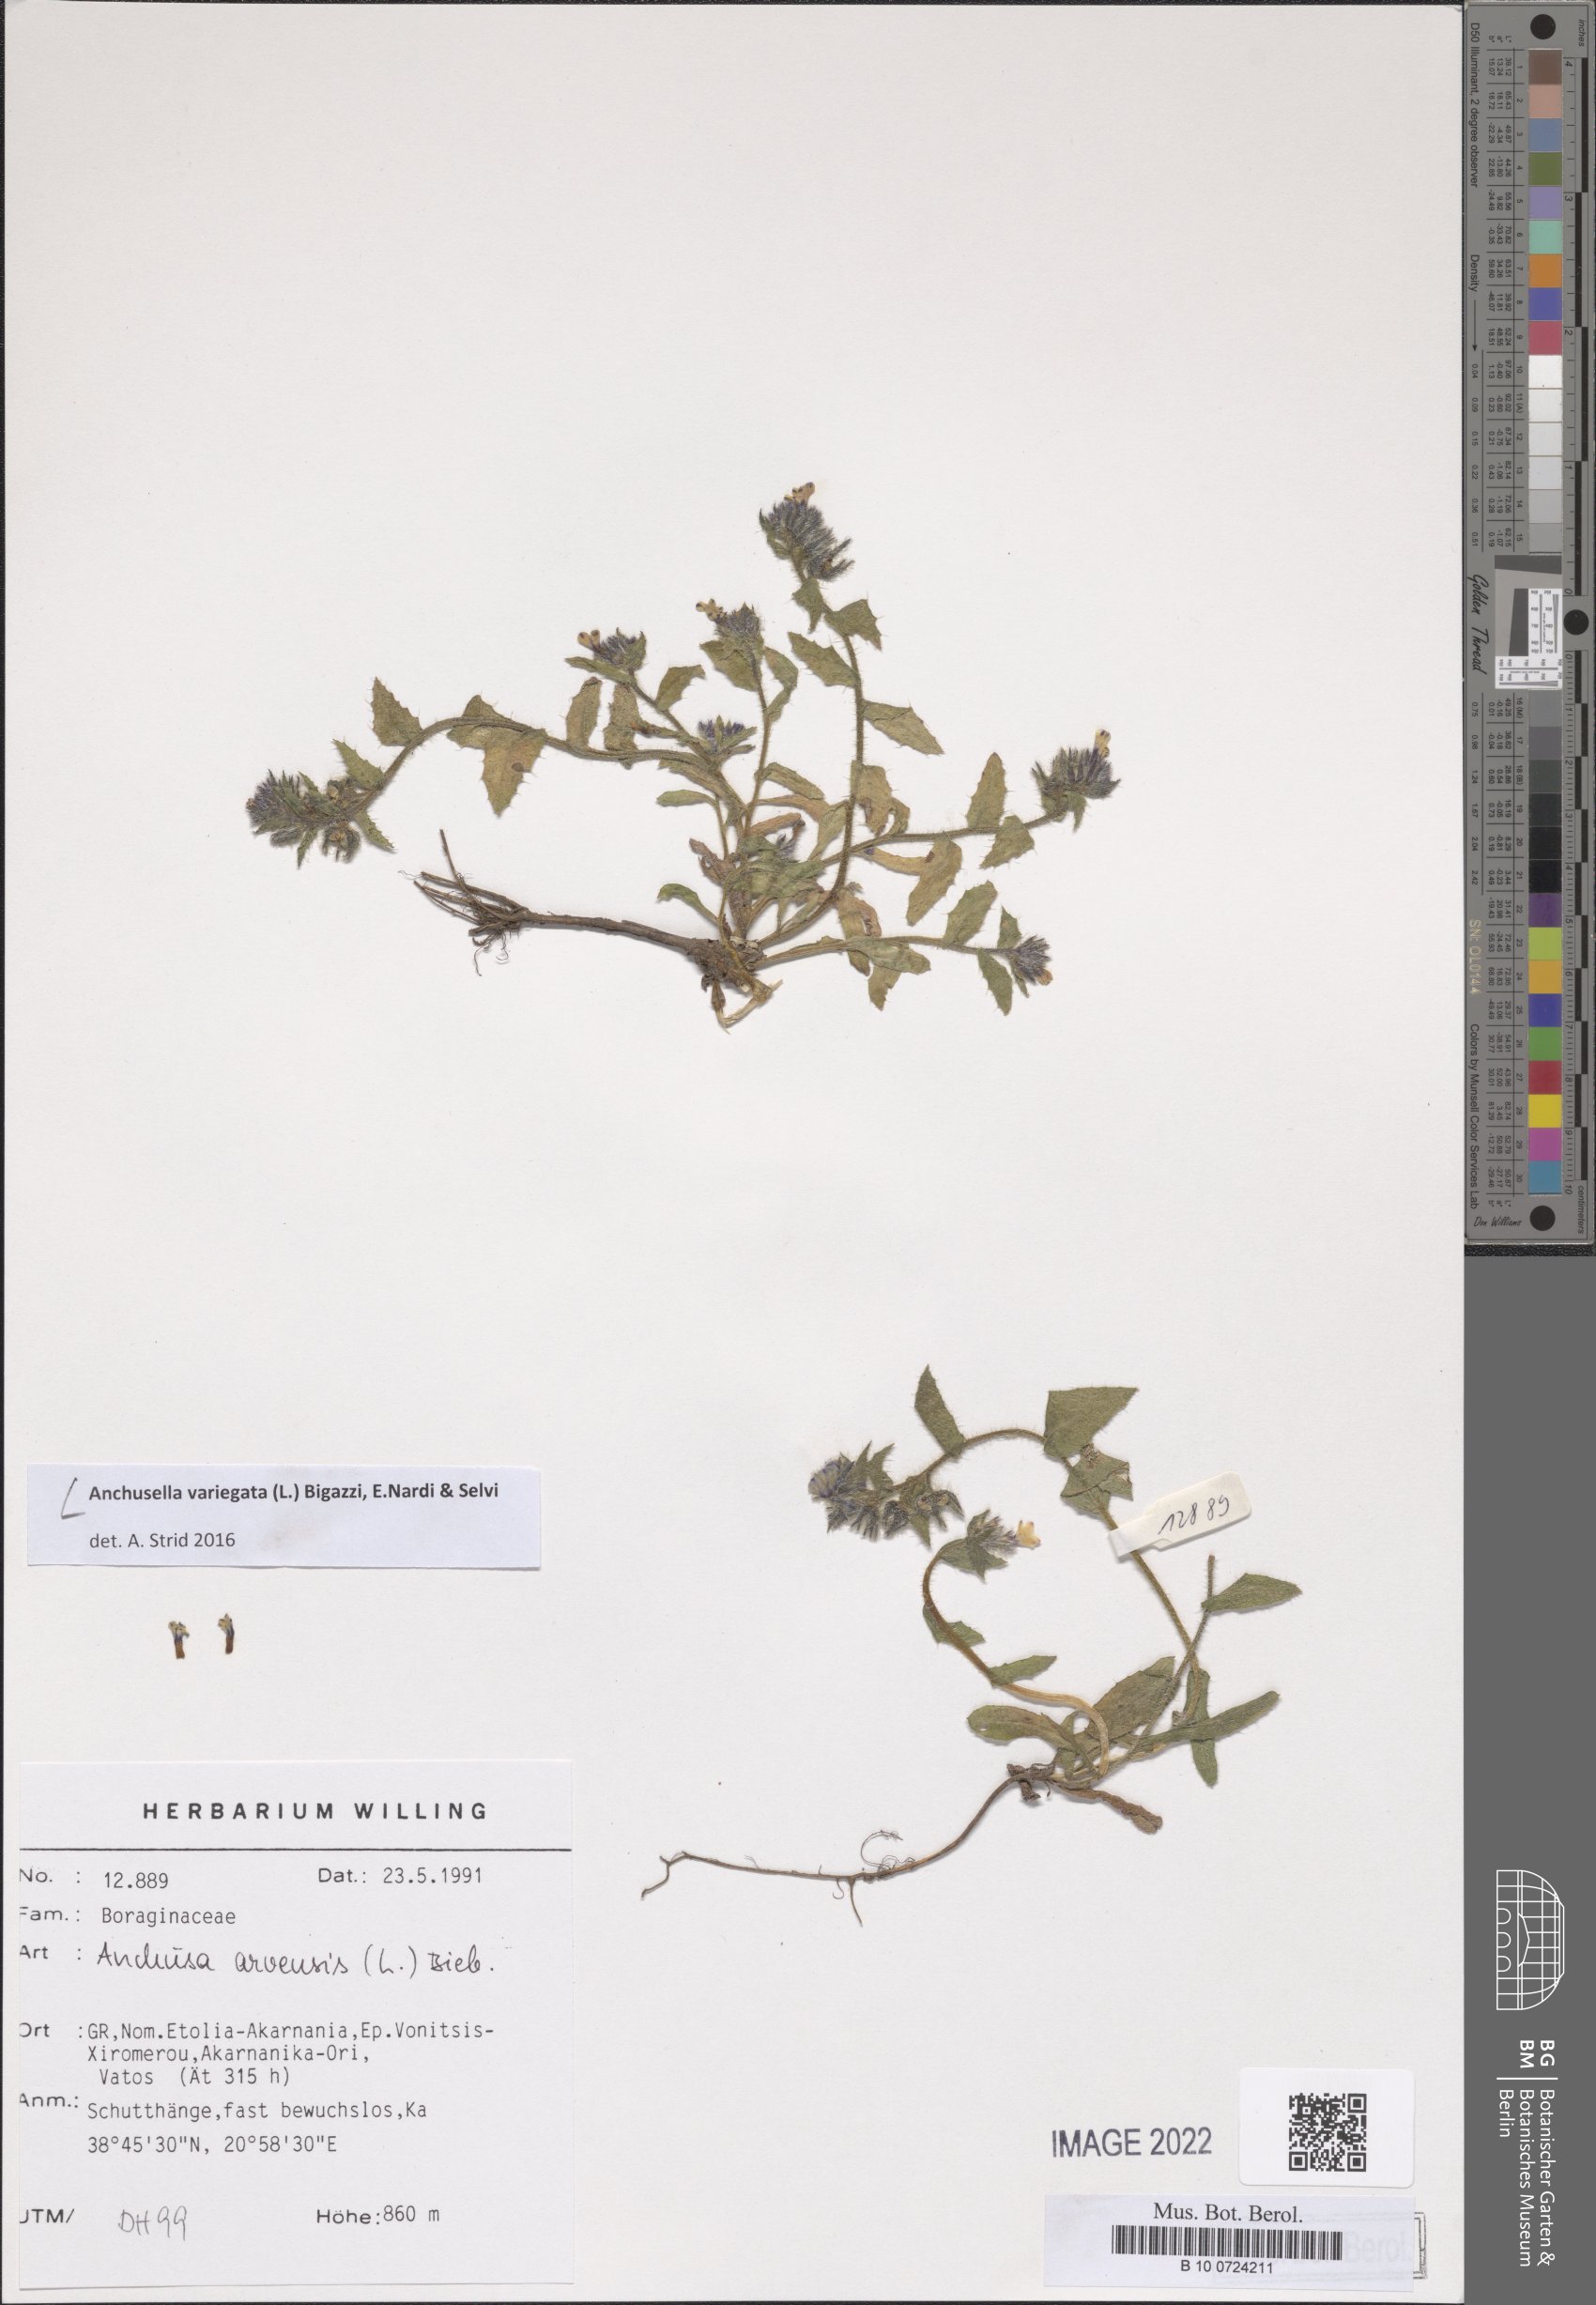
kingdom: Plantae
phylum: Tracheophyta
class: Magnoliopsida
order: Boraginales
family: Boraginaceae
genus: Anchusella
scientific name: Anchusella variegata
